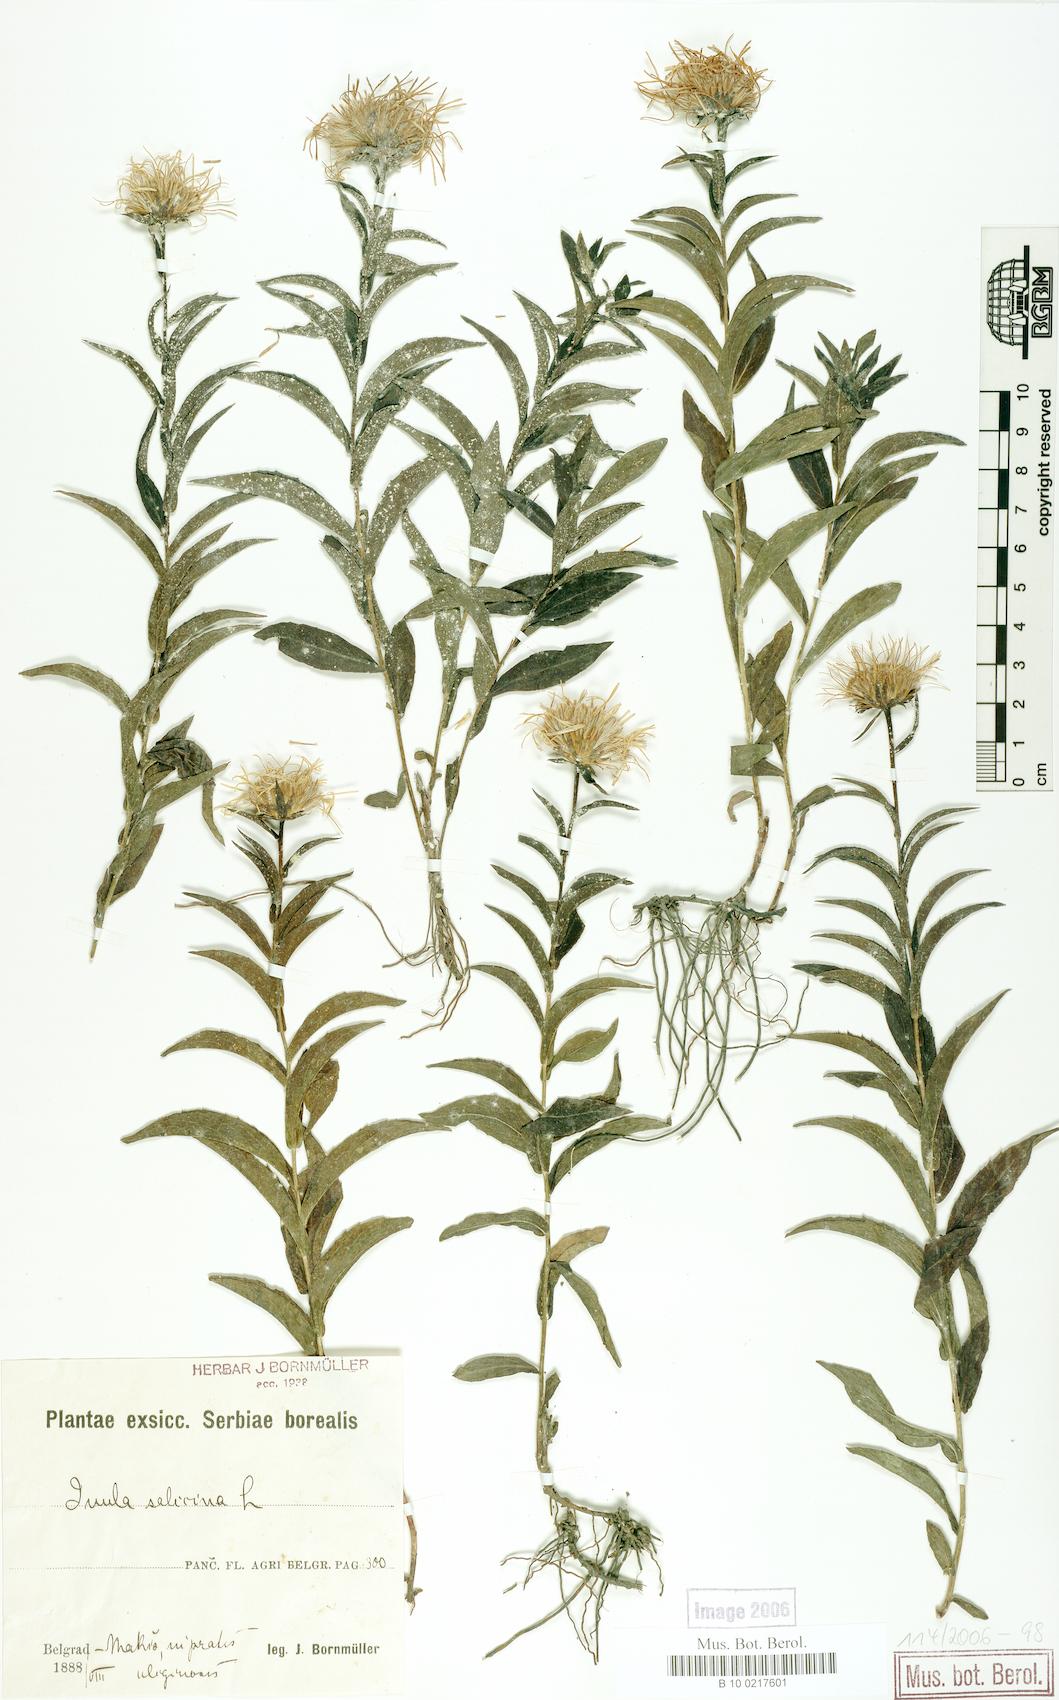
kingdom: Plantae
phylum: Tracheophyta
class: Magnoliopsida
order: Asterales
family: Asteraceae
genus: Pentanema
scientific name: Pentanema salicinum
